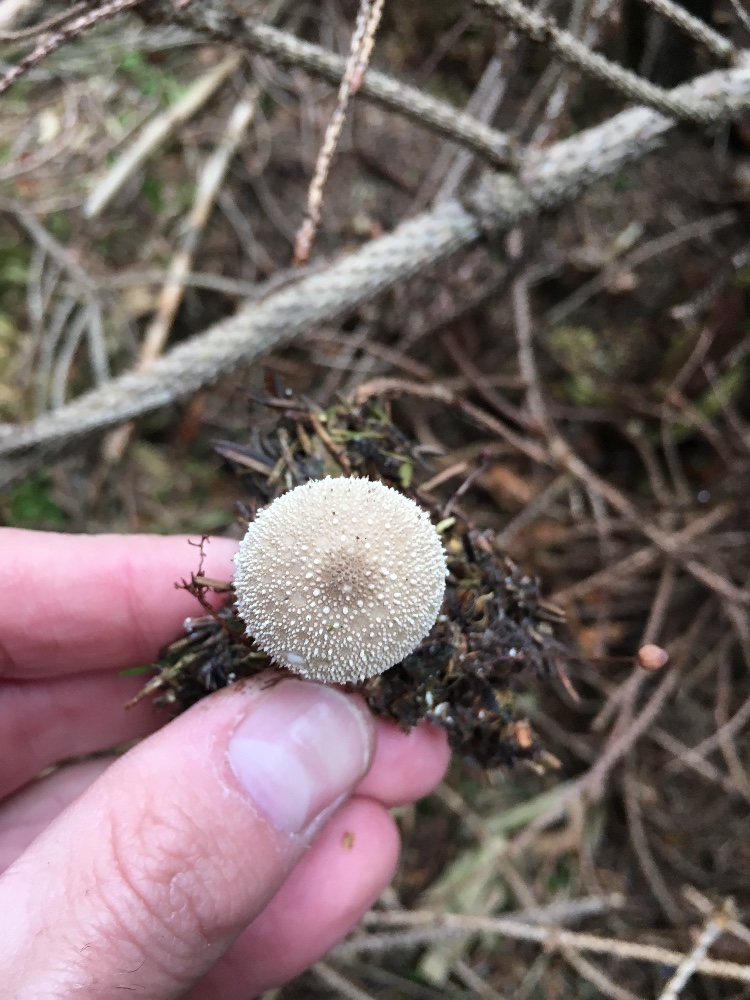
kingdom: Fungi
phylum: Basidiomycota
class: Agaricomycetes
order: Agaricales
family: Lycoperdaceae
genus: Lycoperdon
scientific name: Lycoperdon perlatum
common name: krystal-støvbold
